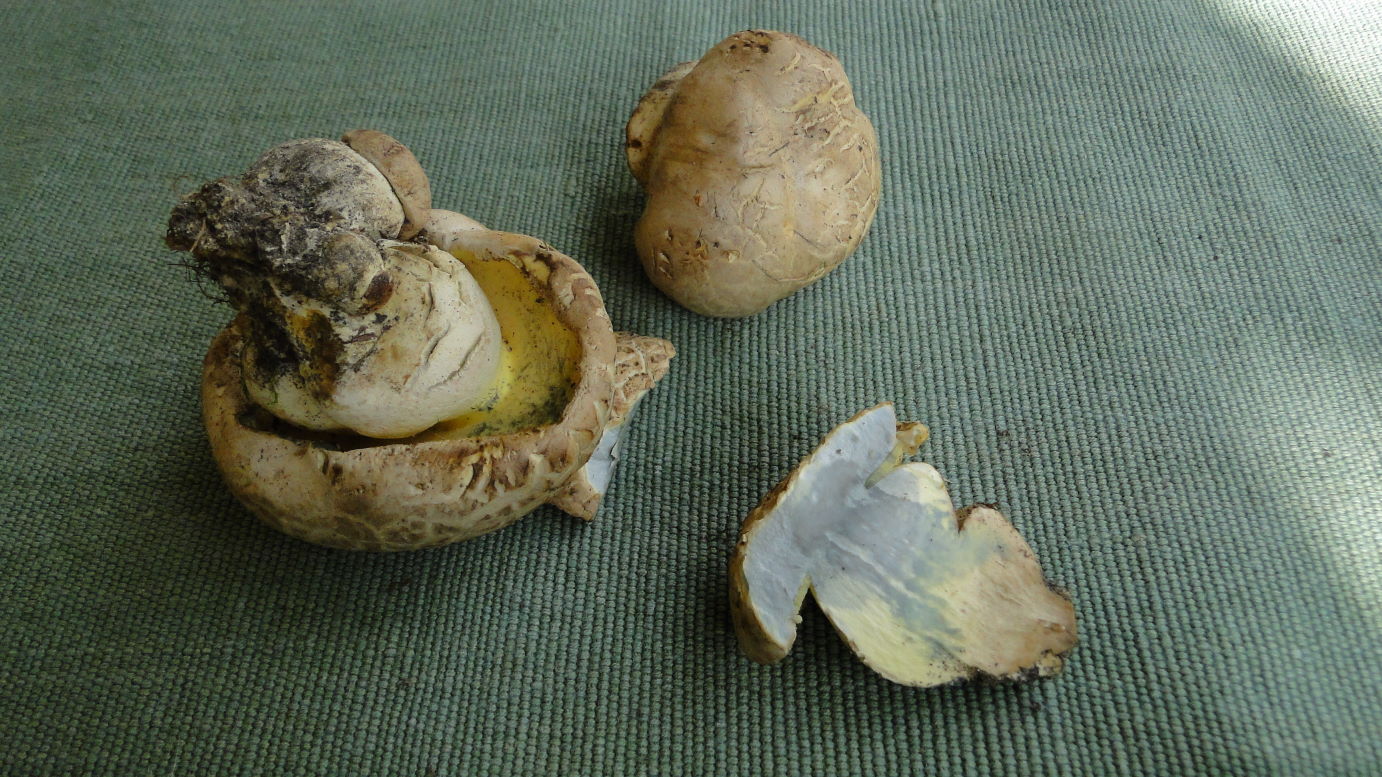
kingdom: Fungi
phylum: Basidiomycota
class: Agaricomycetes
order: Boletales
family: Boletaceae
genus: Caloboletus
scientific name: Caloboletus radicans
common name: rod-rørhat
